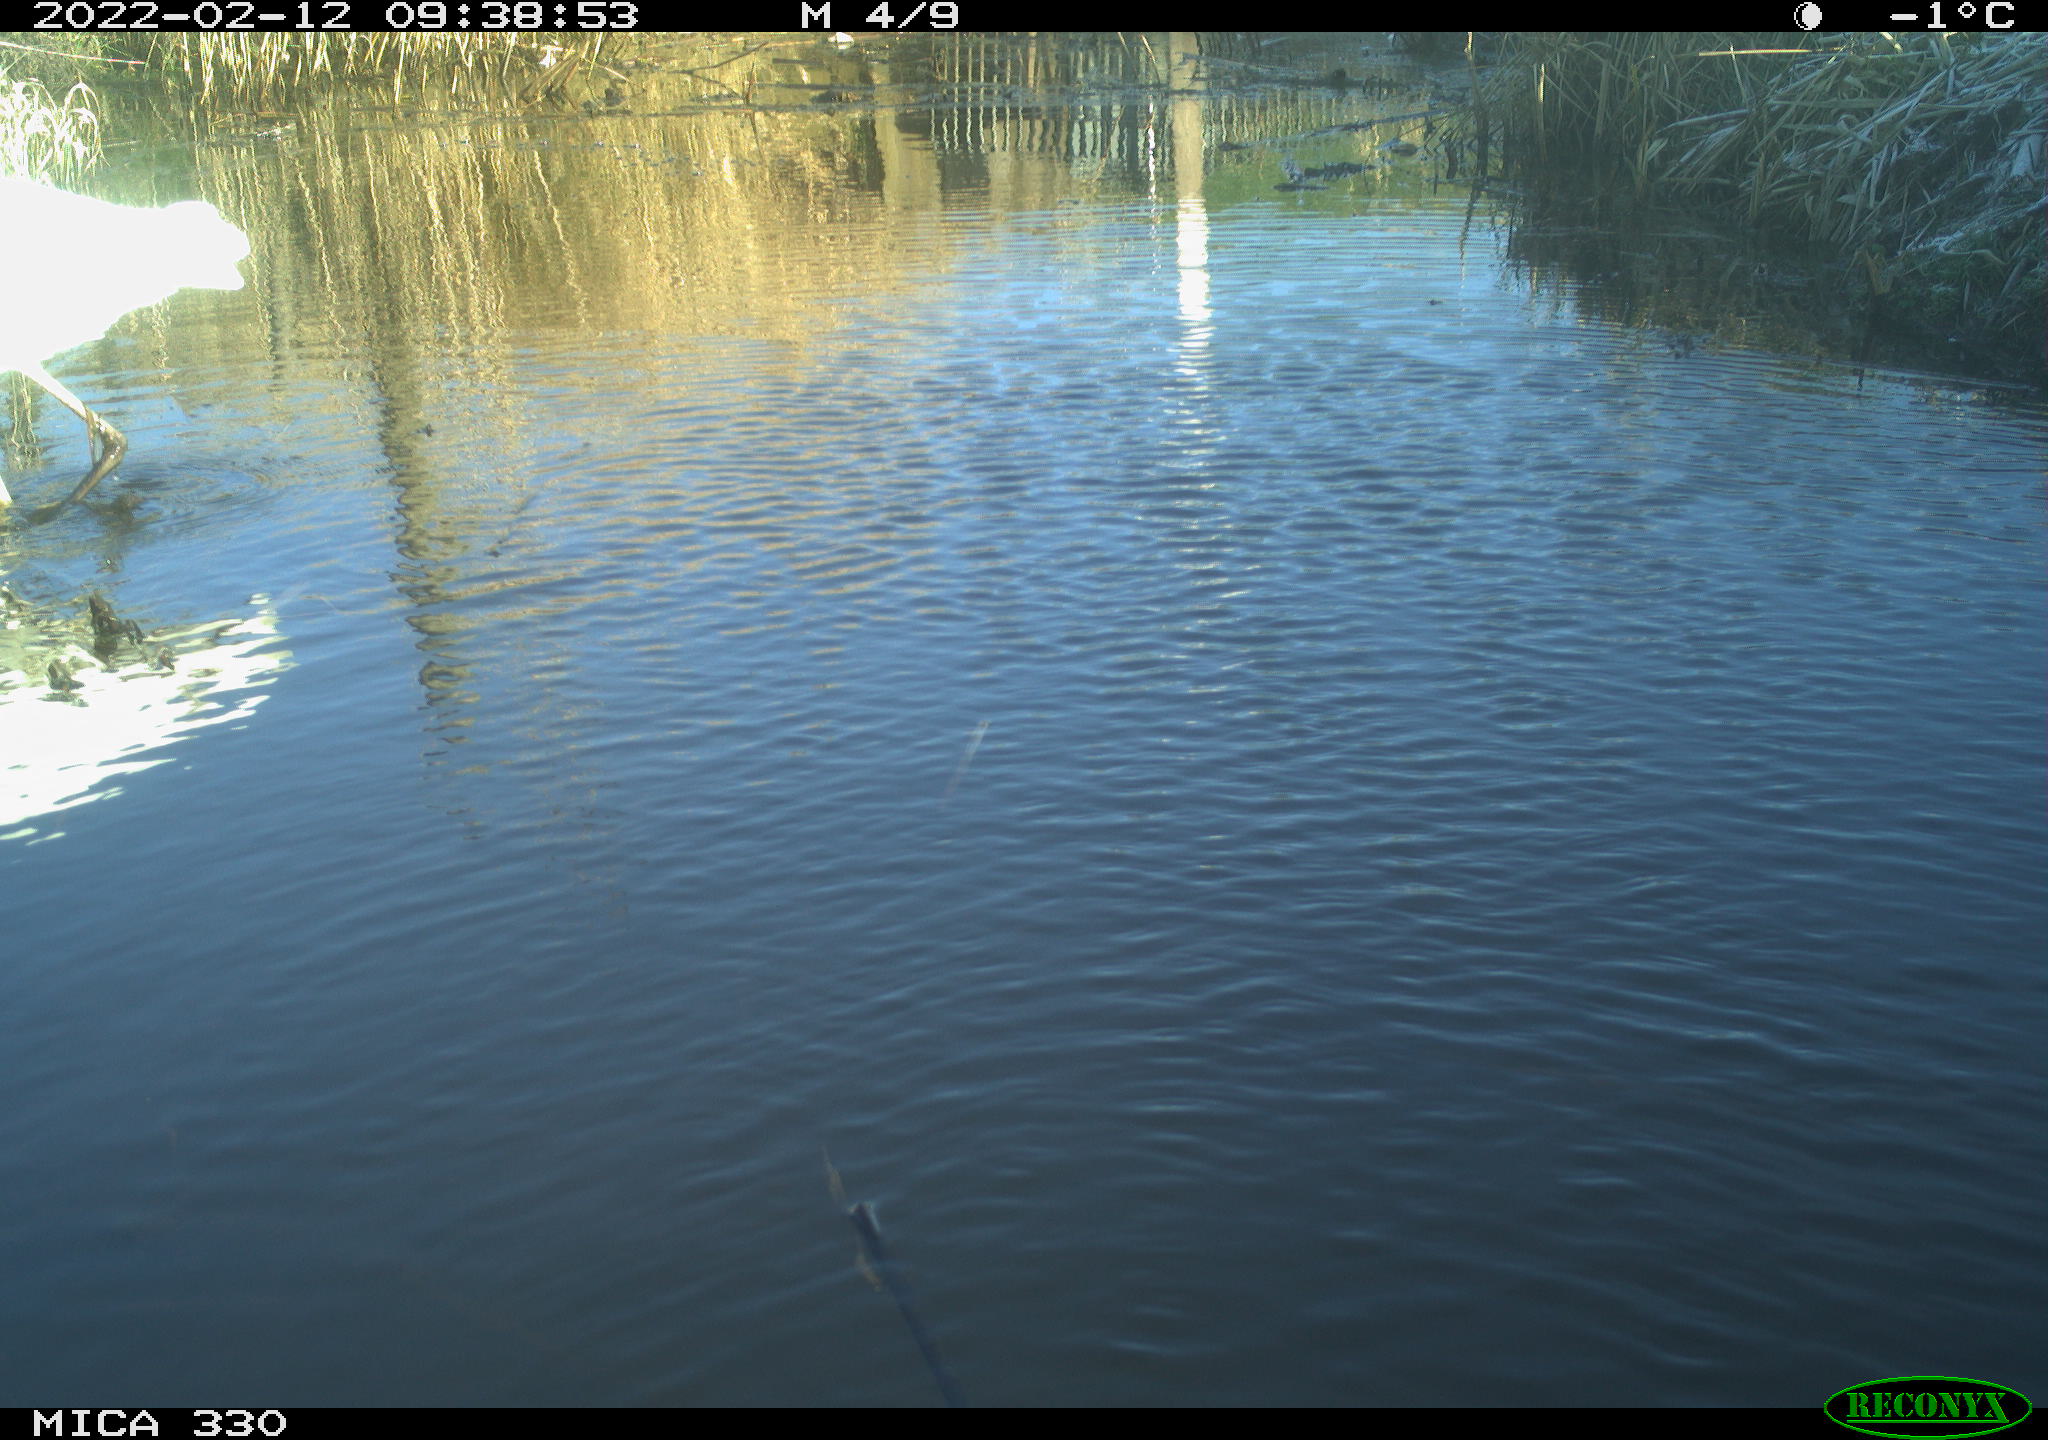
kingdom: Animalia
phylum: Chordata
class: Aves
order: Pelecaniformes
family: Ardeidae
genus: Ardea
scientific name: Ardea alba
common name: Great egret
